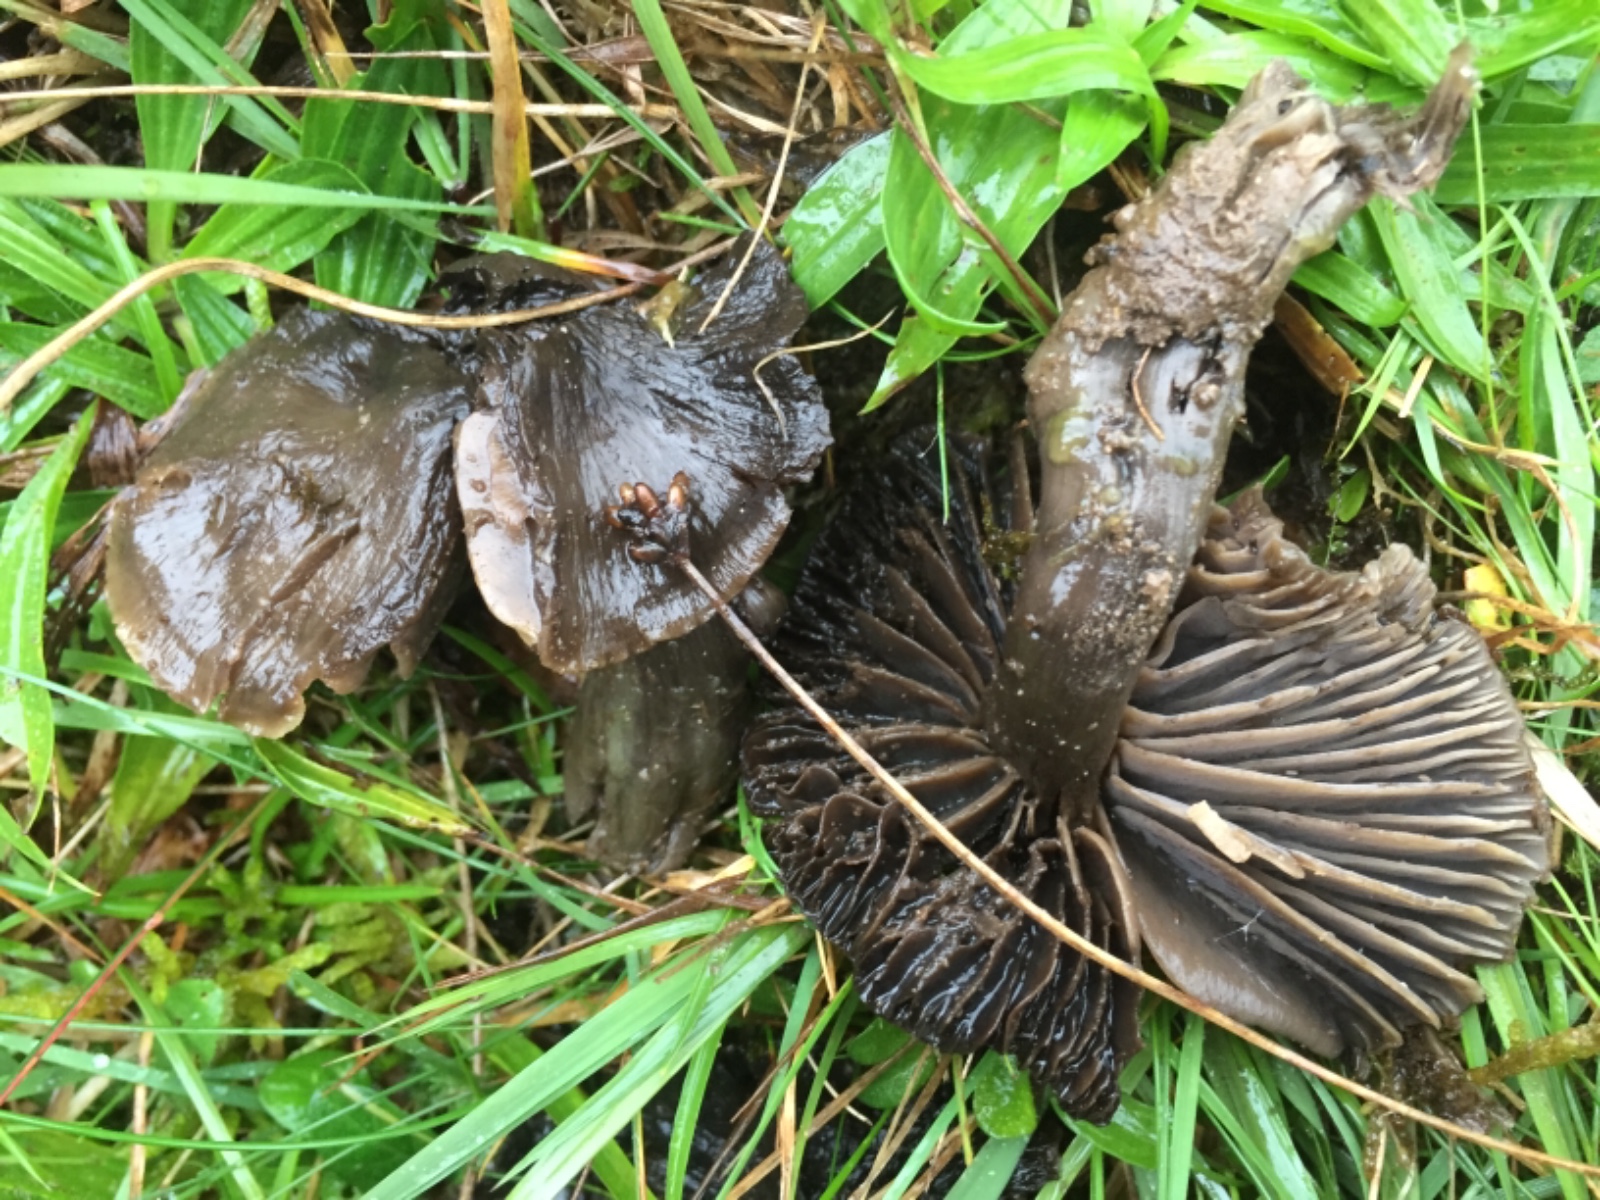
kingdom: Fungi
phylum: Basidiomycota
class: Agaricomycetes
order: Agaricales
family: Hygrophoraceae
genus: Neohygrocybe
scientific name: Neohygrocybe ovina
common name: rødmende vokshat
